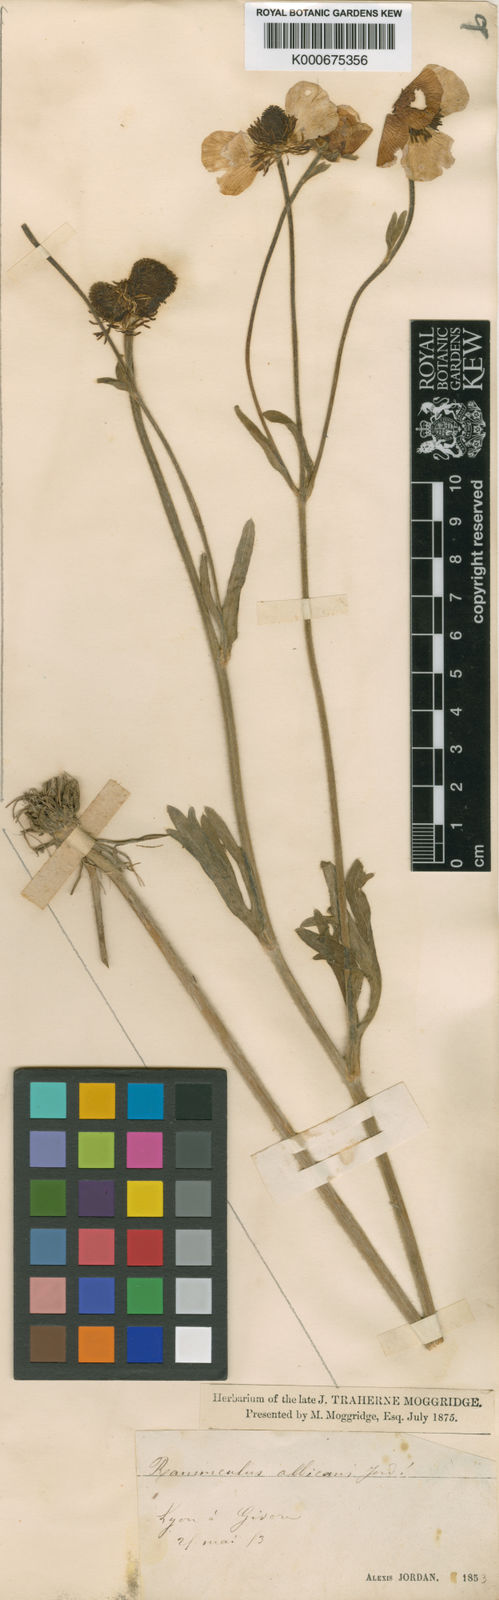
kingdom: Plantae
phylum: Tracheophyta
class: Magnoliopsida
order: Ranunculales
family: Ranunculaceae
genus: Ranunculus
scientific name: Ranunculus monspeliacus
